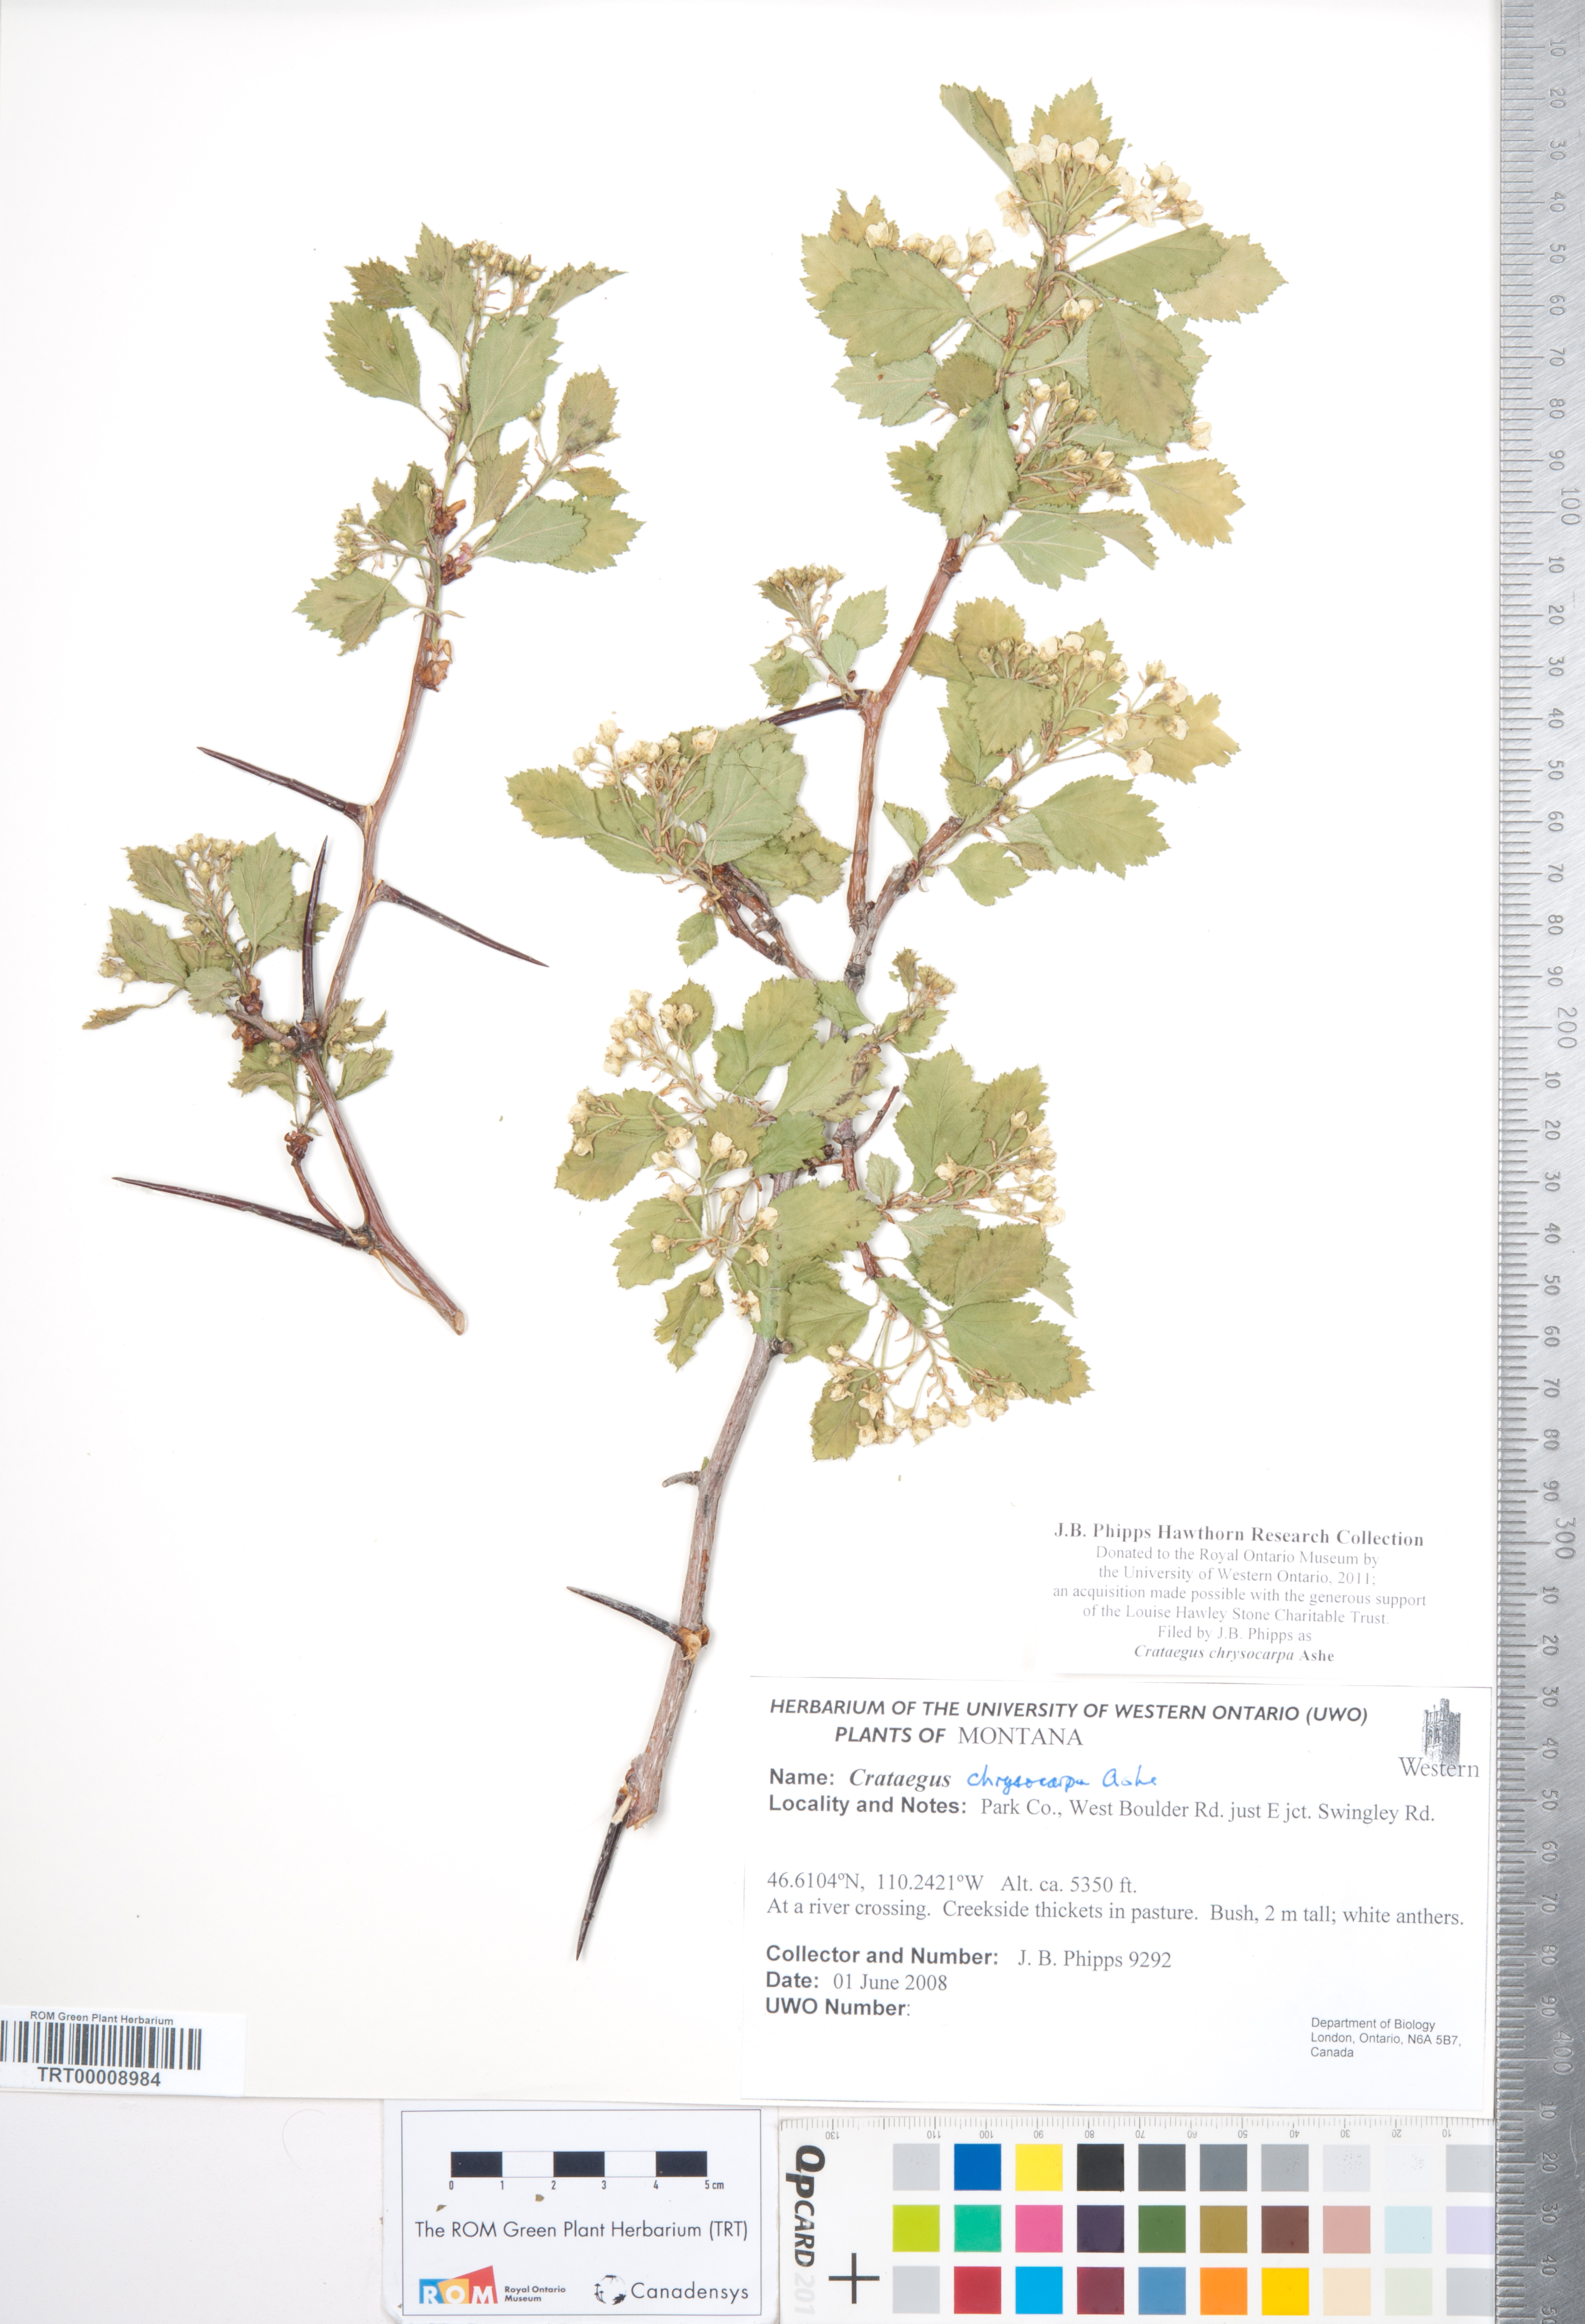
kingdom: Plantae
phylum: Tracheophyta
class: Magnoliopsida
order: Rosales
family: Rosaceae
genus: Crataegus
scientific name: Crataegus chrysocarpa
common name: Fire-berry hawthorn
